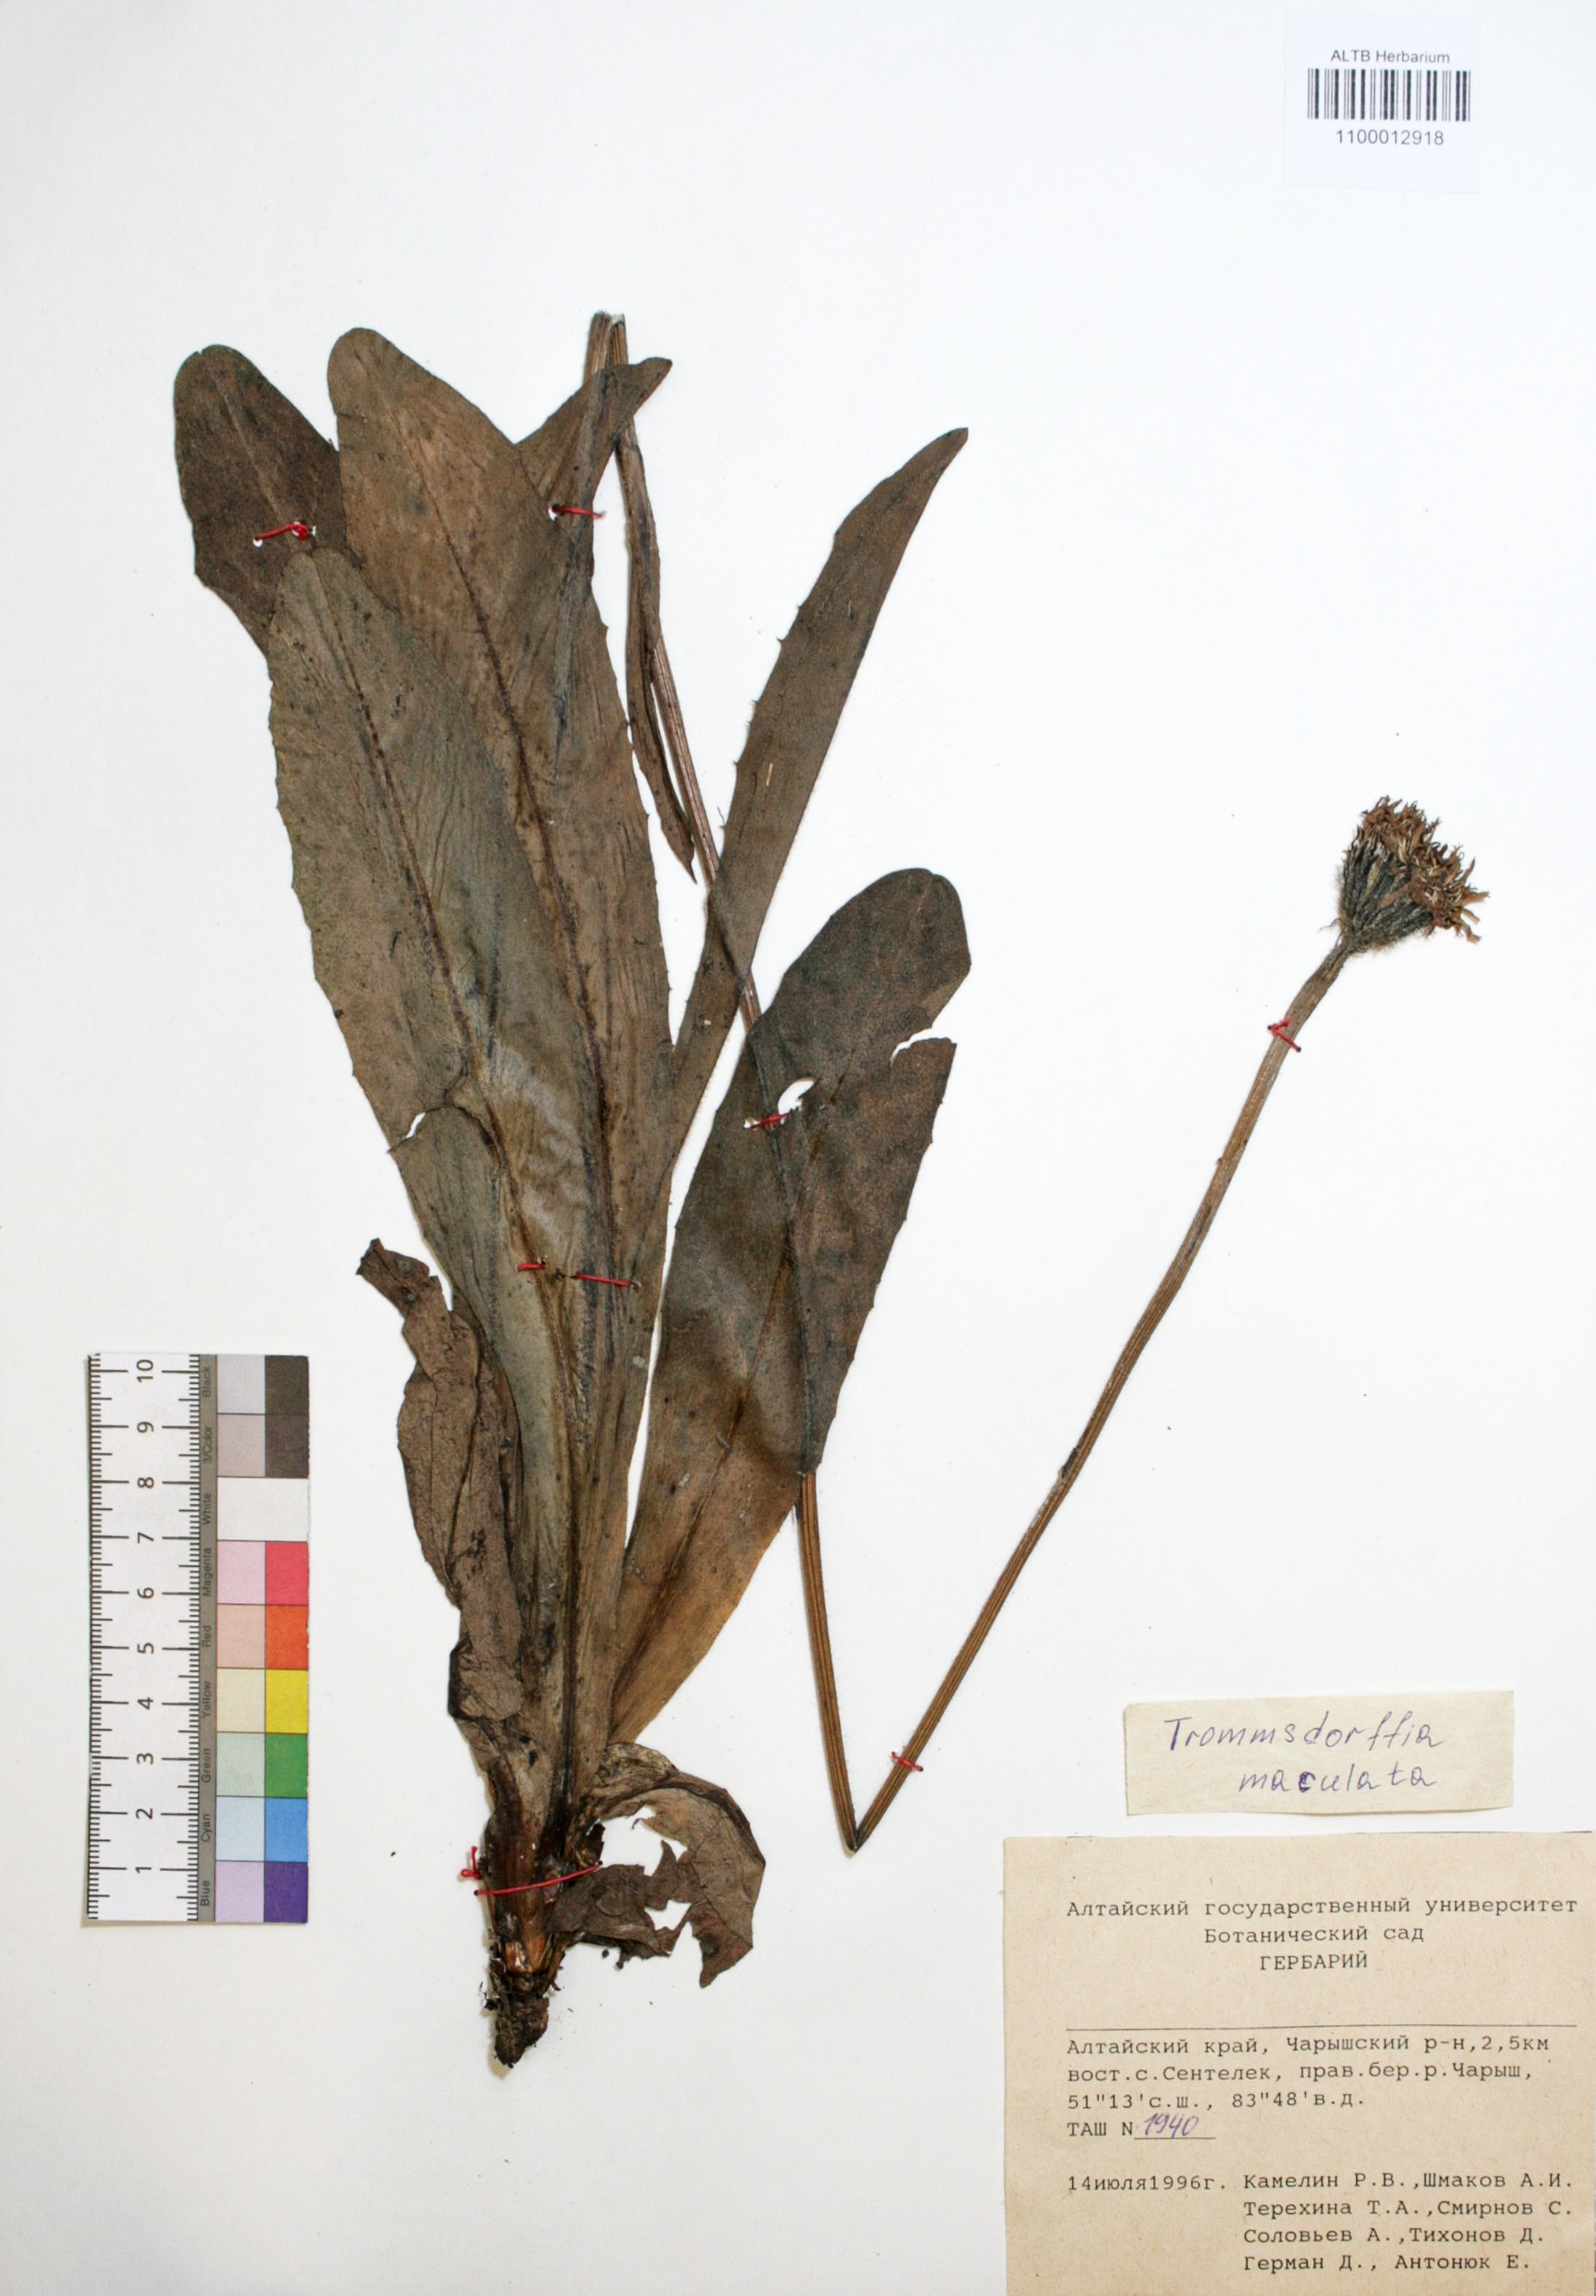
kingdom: Plantae
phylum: Tracheophyta
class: Magnoliopsida
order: Asterales
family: Asteraceae
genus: Trommsdorffia
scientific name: Trommsdorffia maculata
